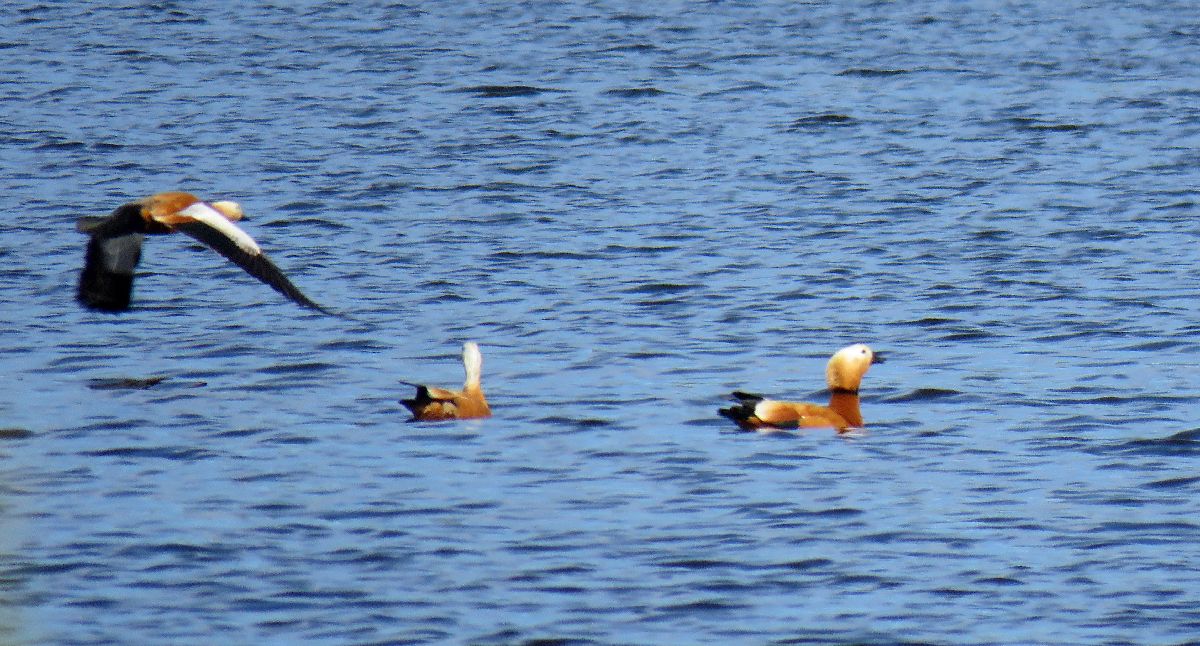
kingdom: Animalia
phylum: Chordata
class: Aves
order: Anseriformes
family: Anatidae
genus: Tadorna
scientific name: Tadorna ferruginea
